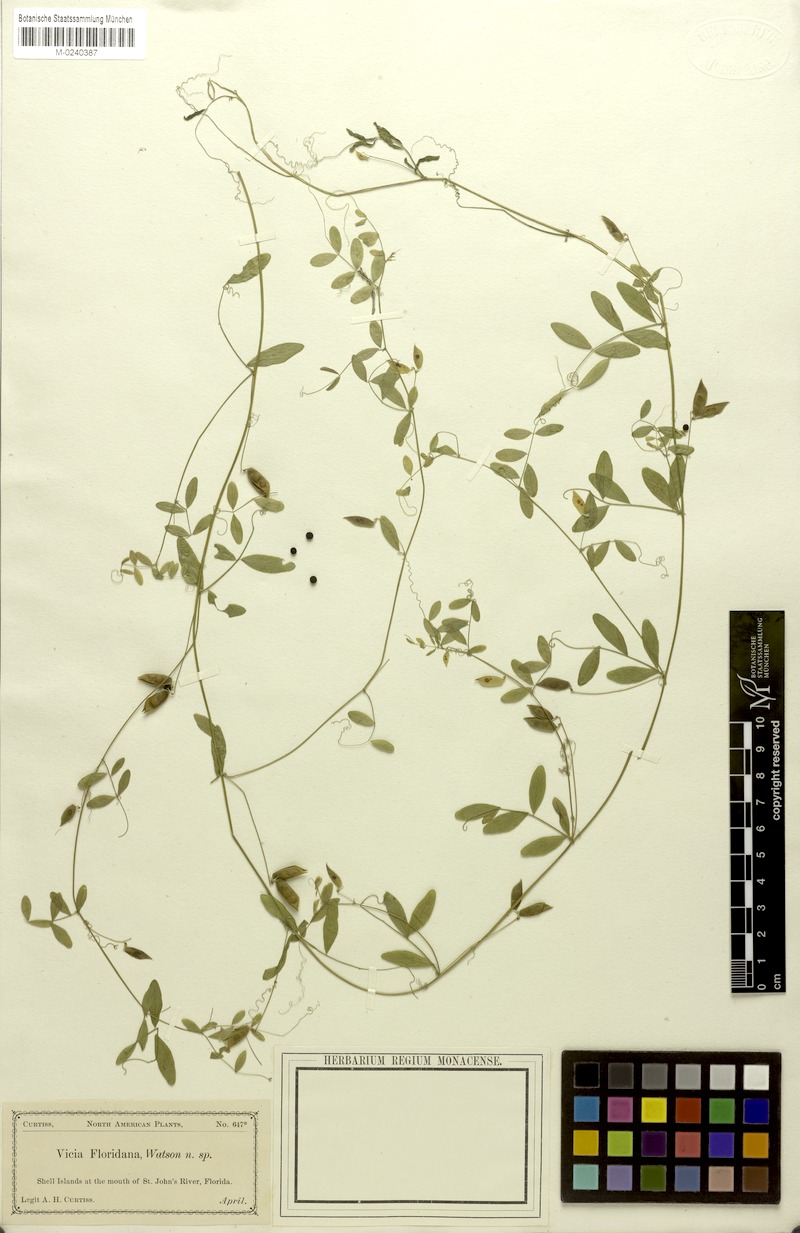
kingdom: Plantae
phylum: Tracheophyta
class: Magnoliopsida
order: Fabales
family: Fabaceae
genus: Vicia
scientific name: Vicia floridana
